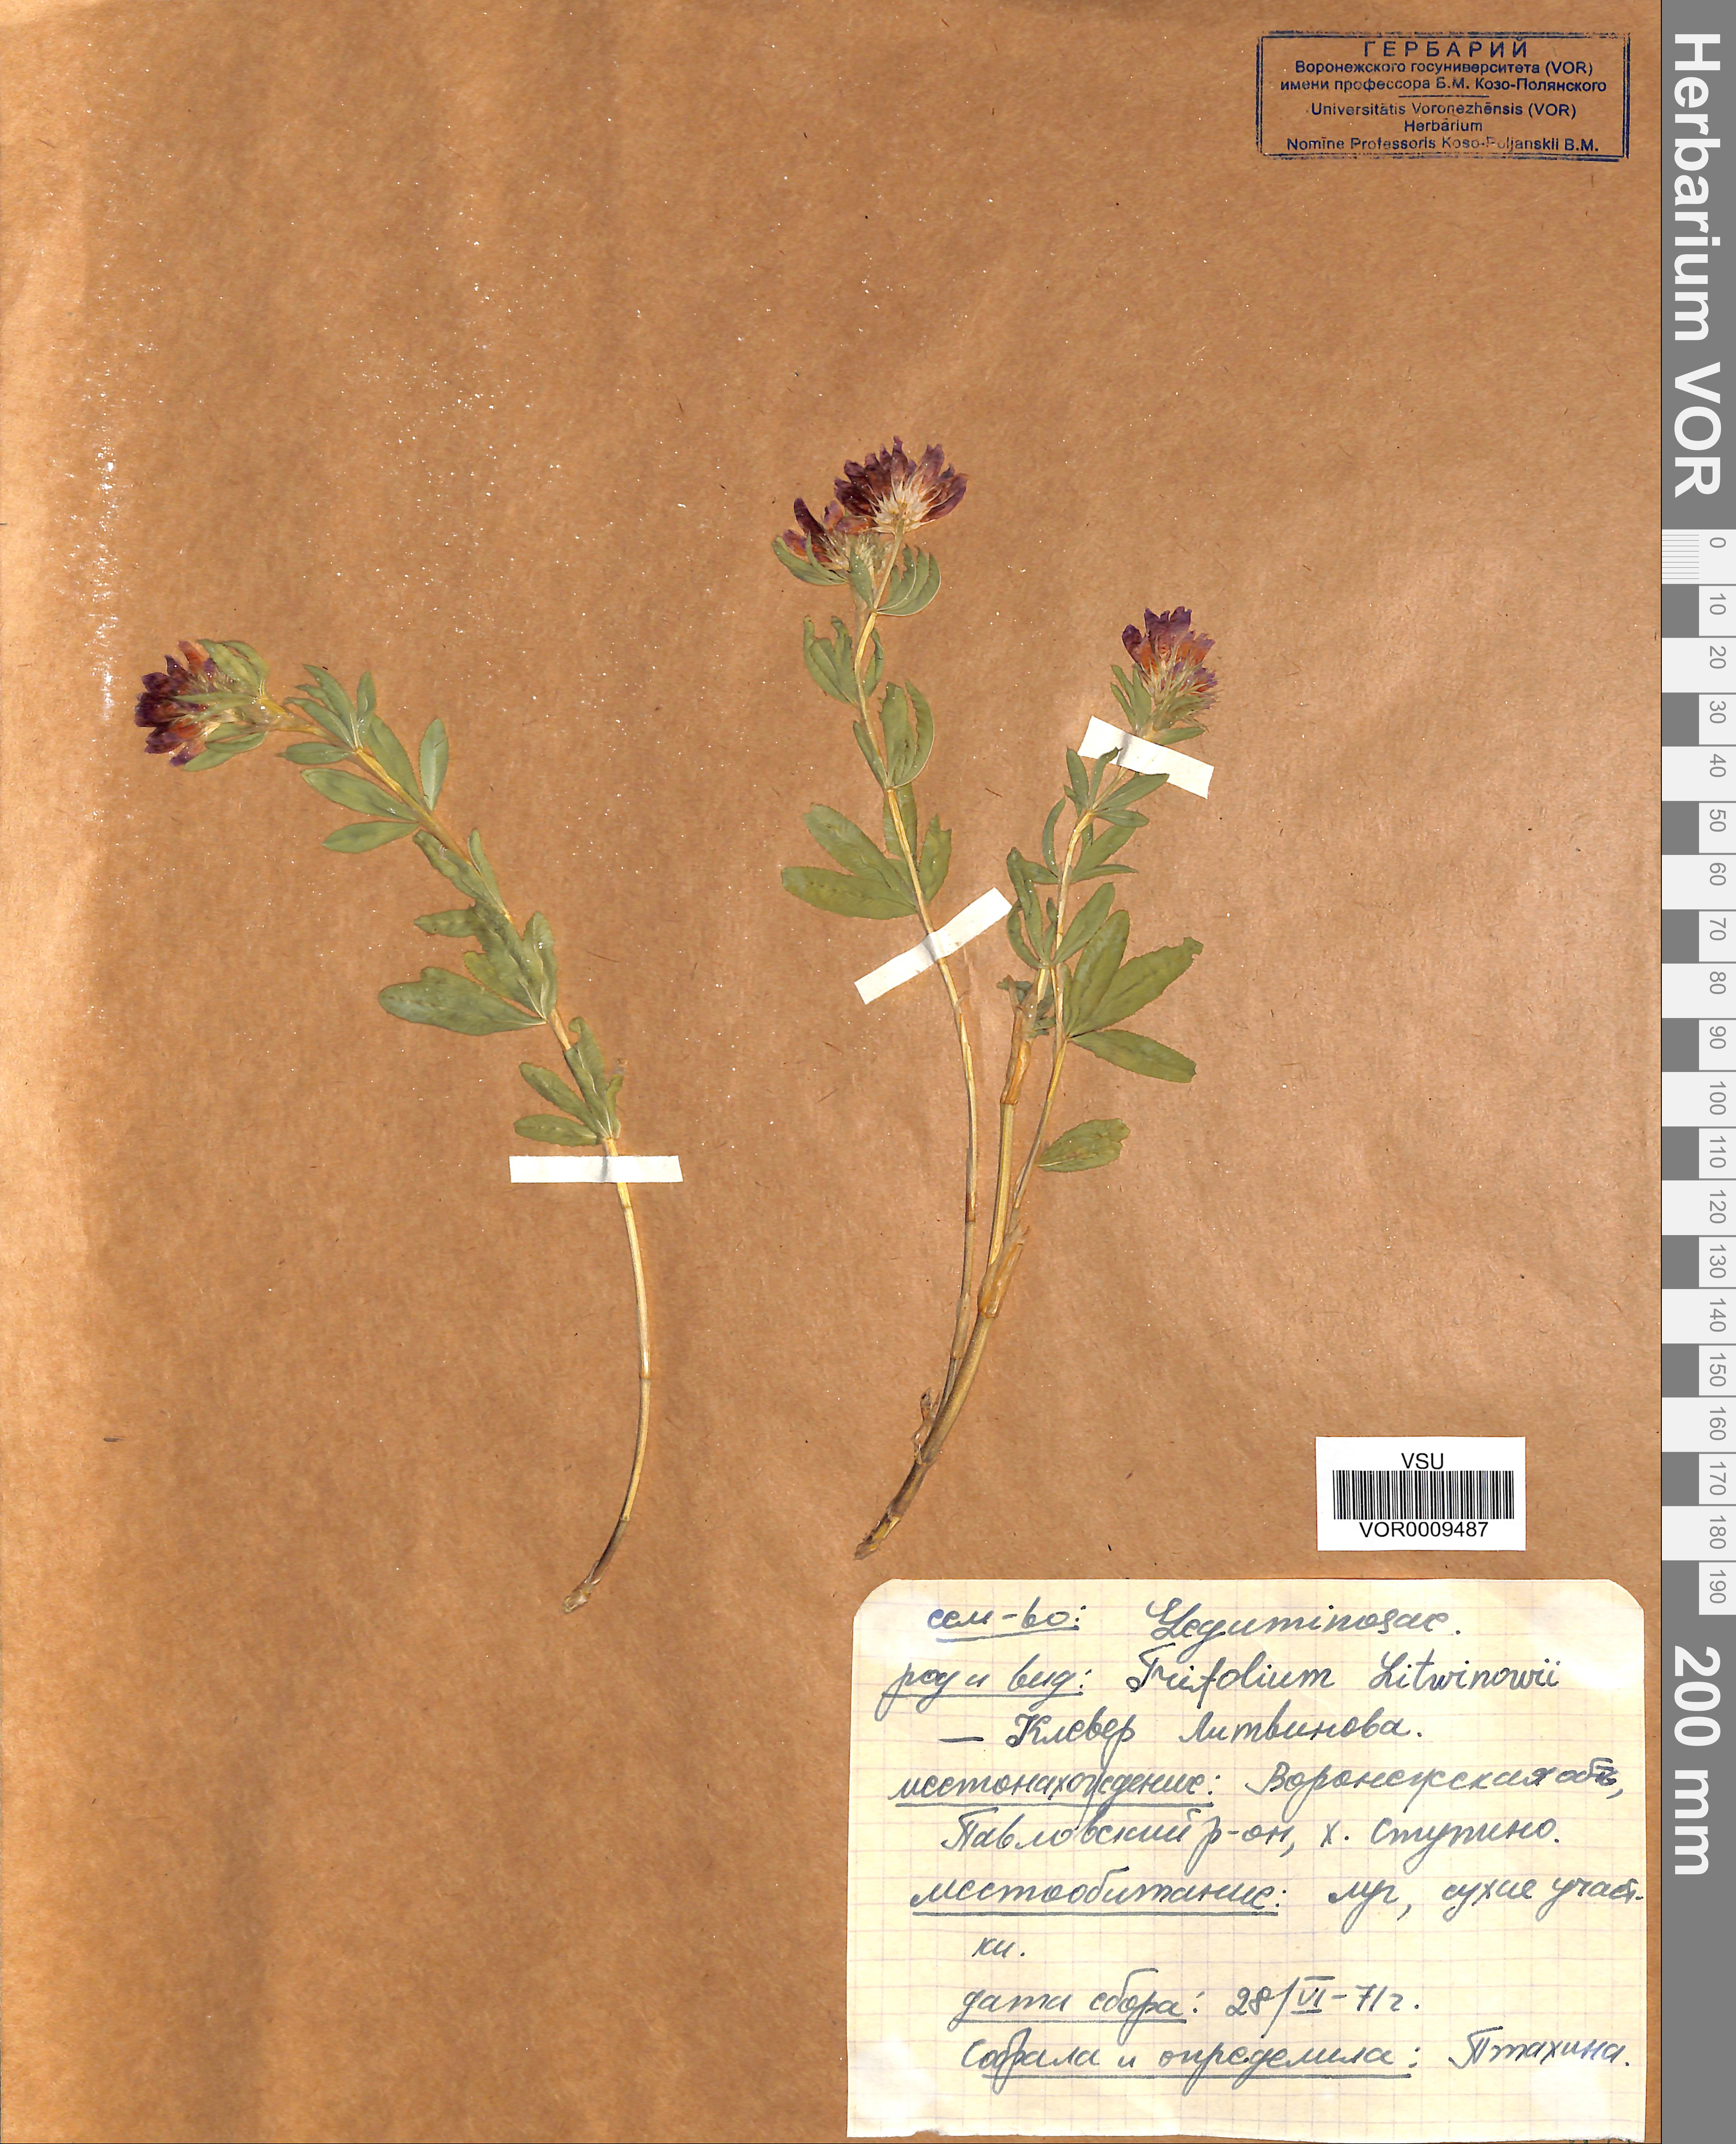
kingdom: Plantae
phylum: Tracheophyta
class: Magnoliopsida
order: Fabales
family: Fabaceae
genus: Trifolium
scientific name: Trifolium lupinaster
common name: Lupine clover
